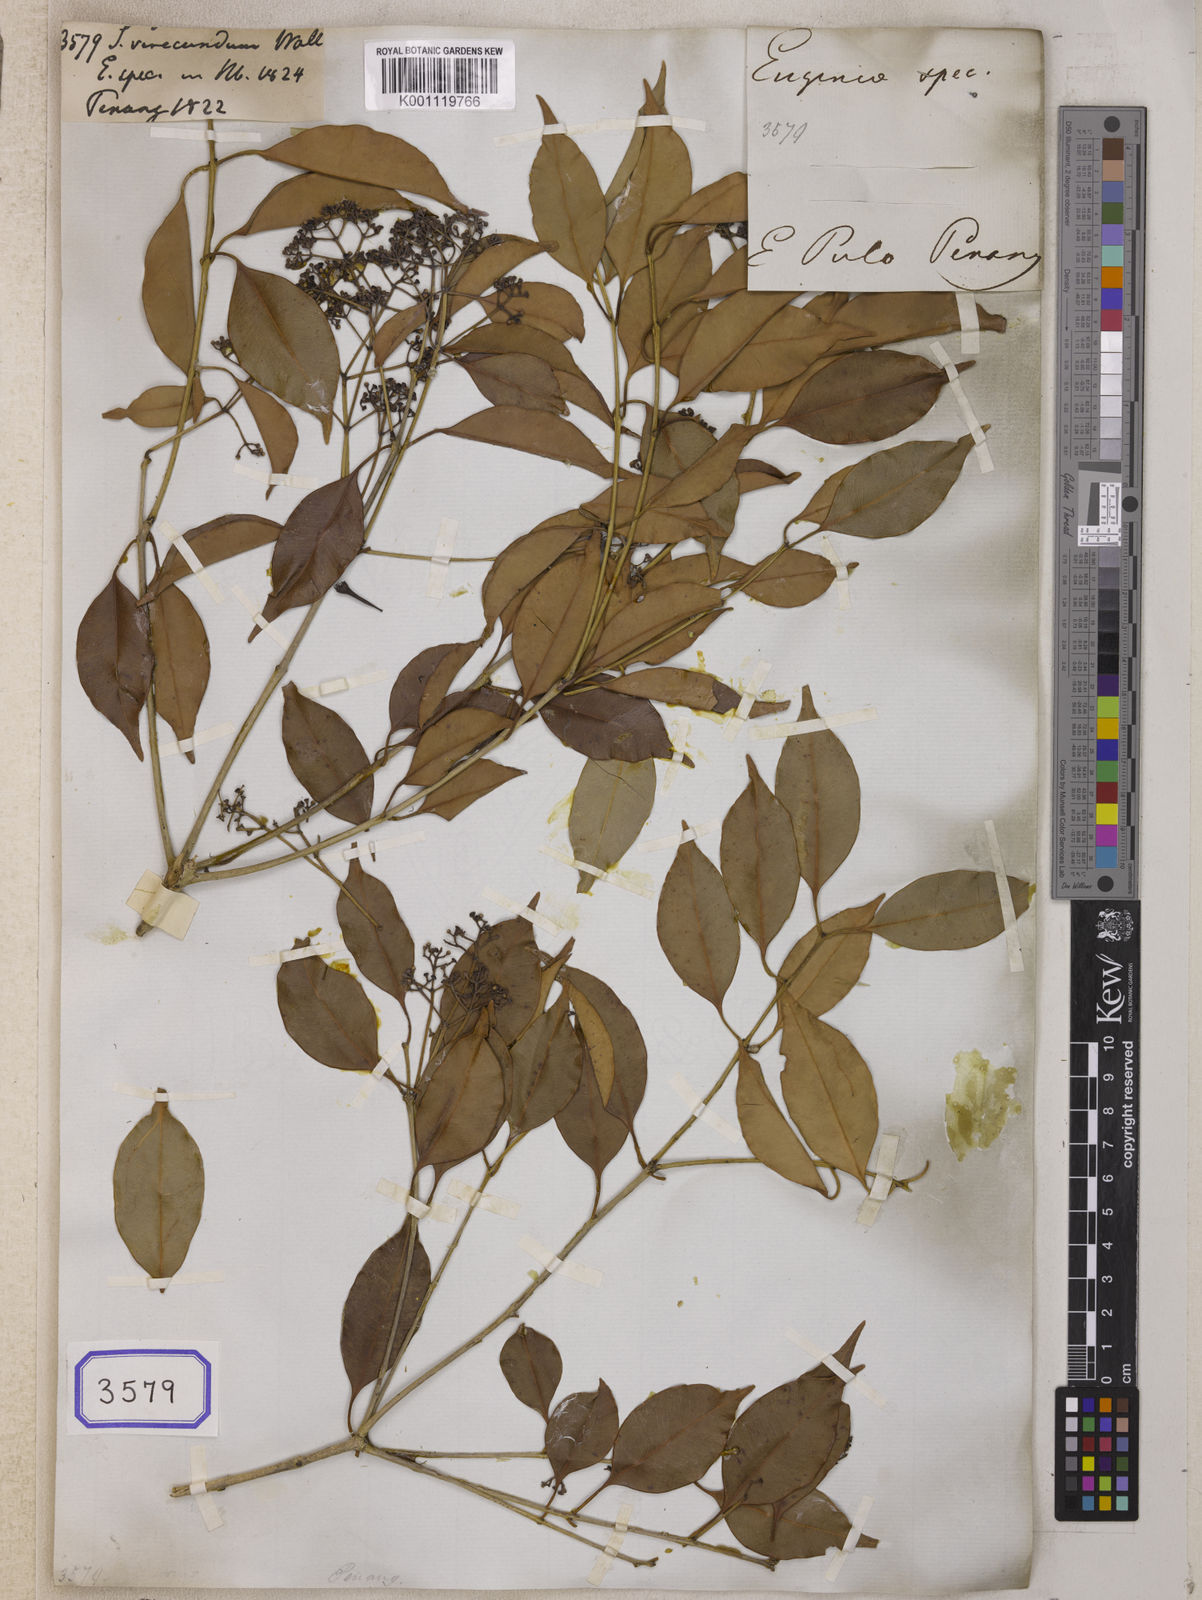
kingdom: Plantae
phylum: Tracheophyta
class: Magnoliopsida
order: Myrtales
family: Myrtaceae
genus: Syzygium
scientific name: Syzygium
